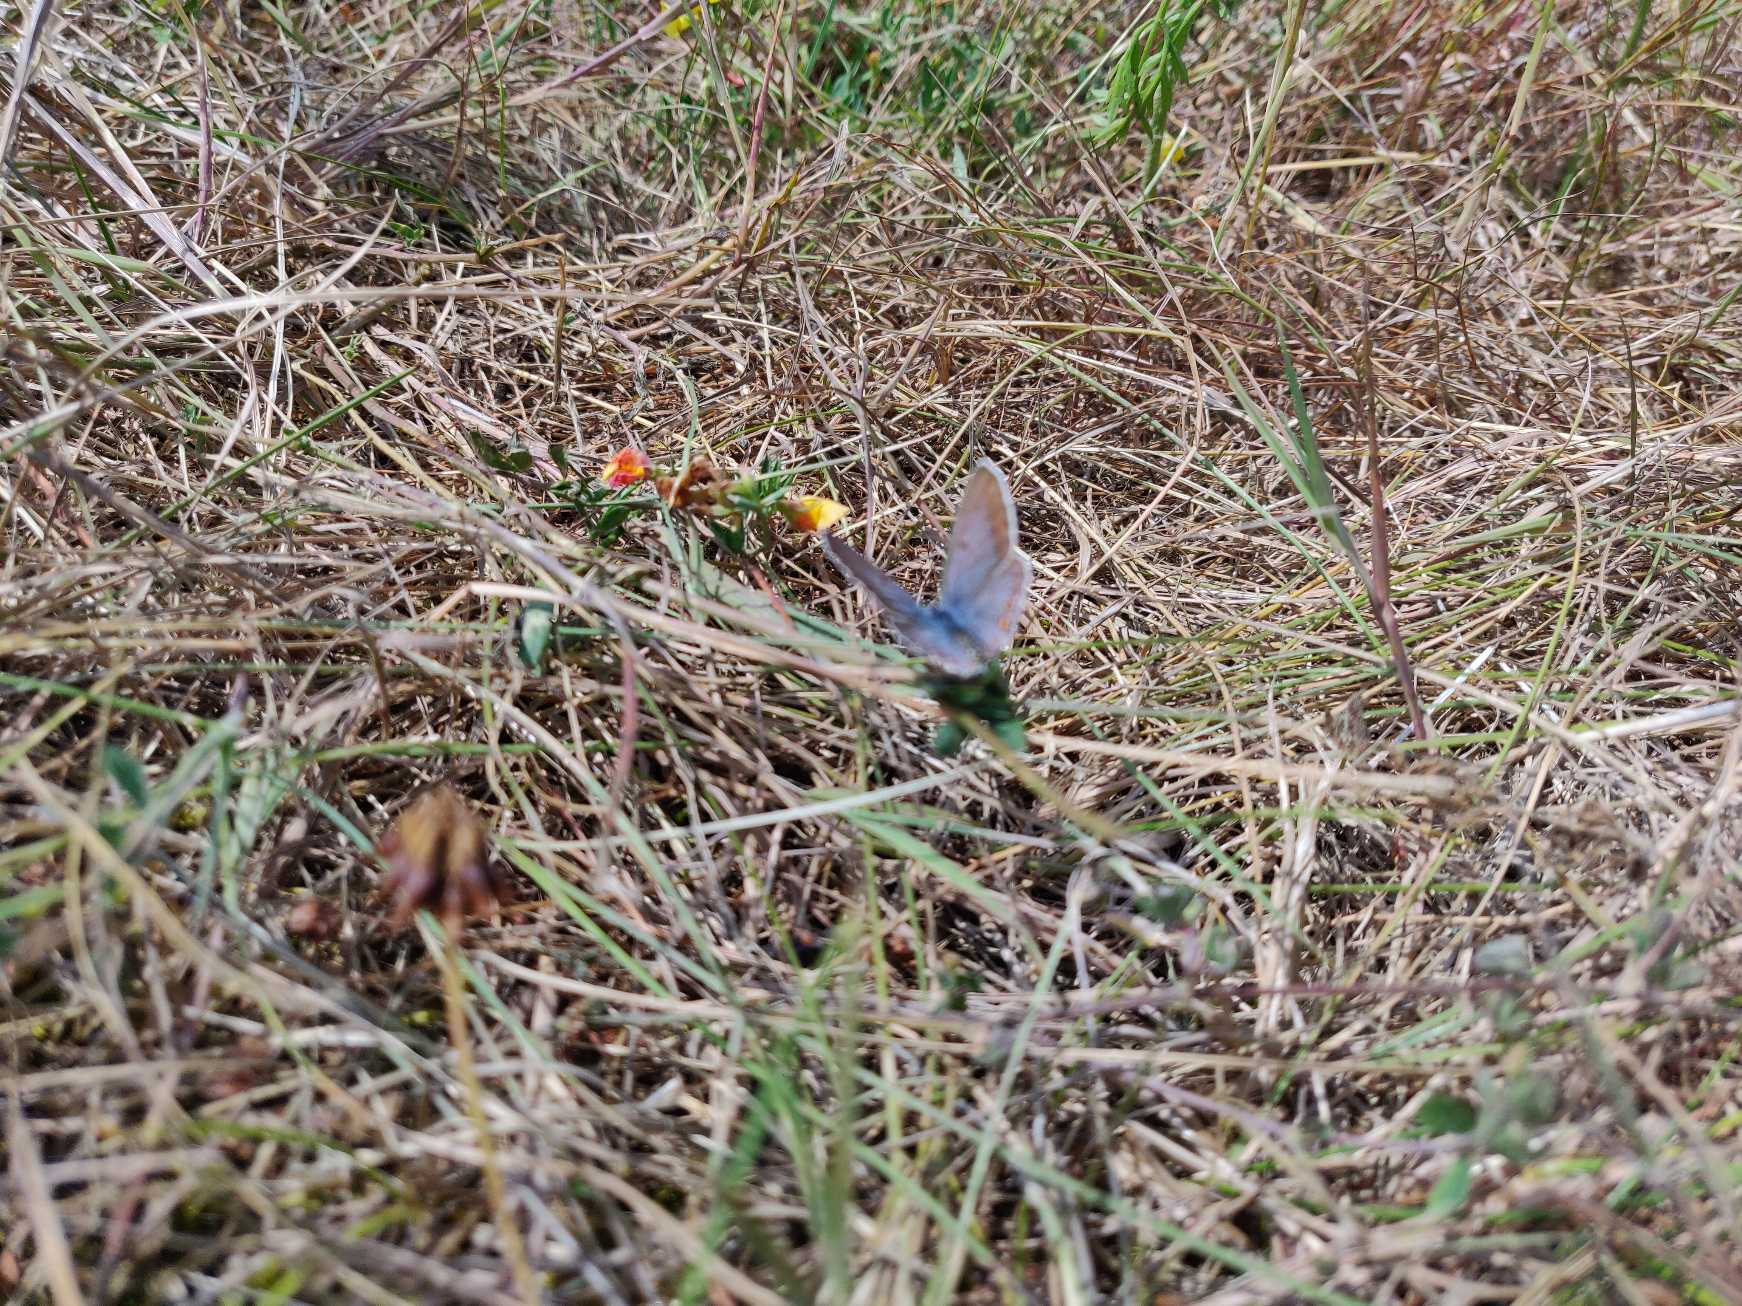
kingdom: Animalia
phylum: Arthropoda
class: Insecta
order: Lepidoptera
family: Lycaenidae
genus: Polyommatus
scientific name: Polyommatus icarus
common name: Almindelig blåfugl
